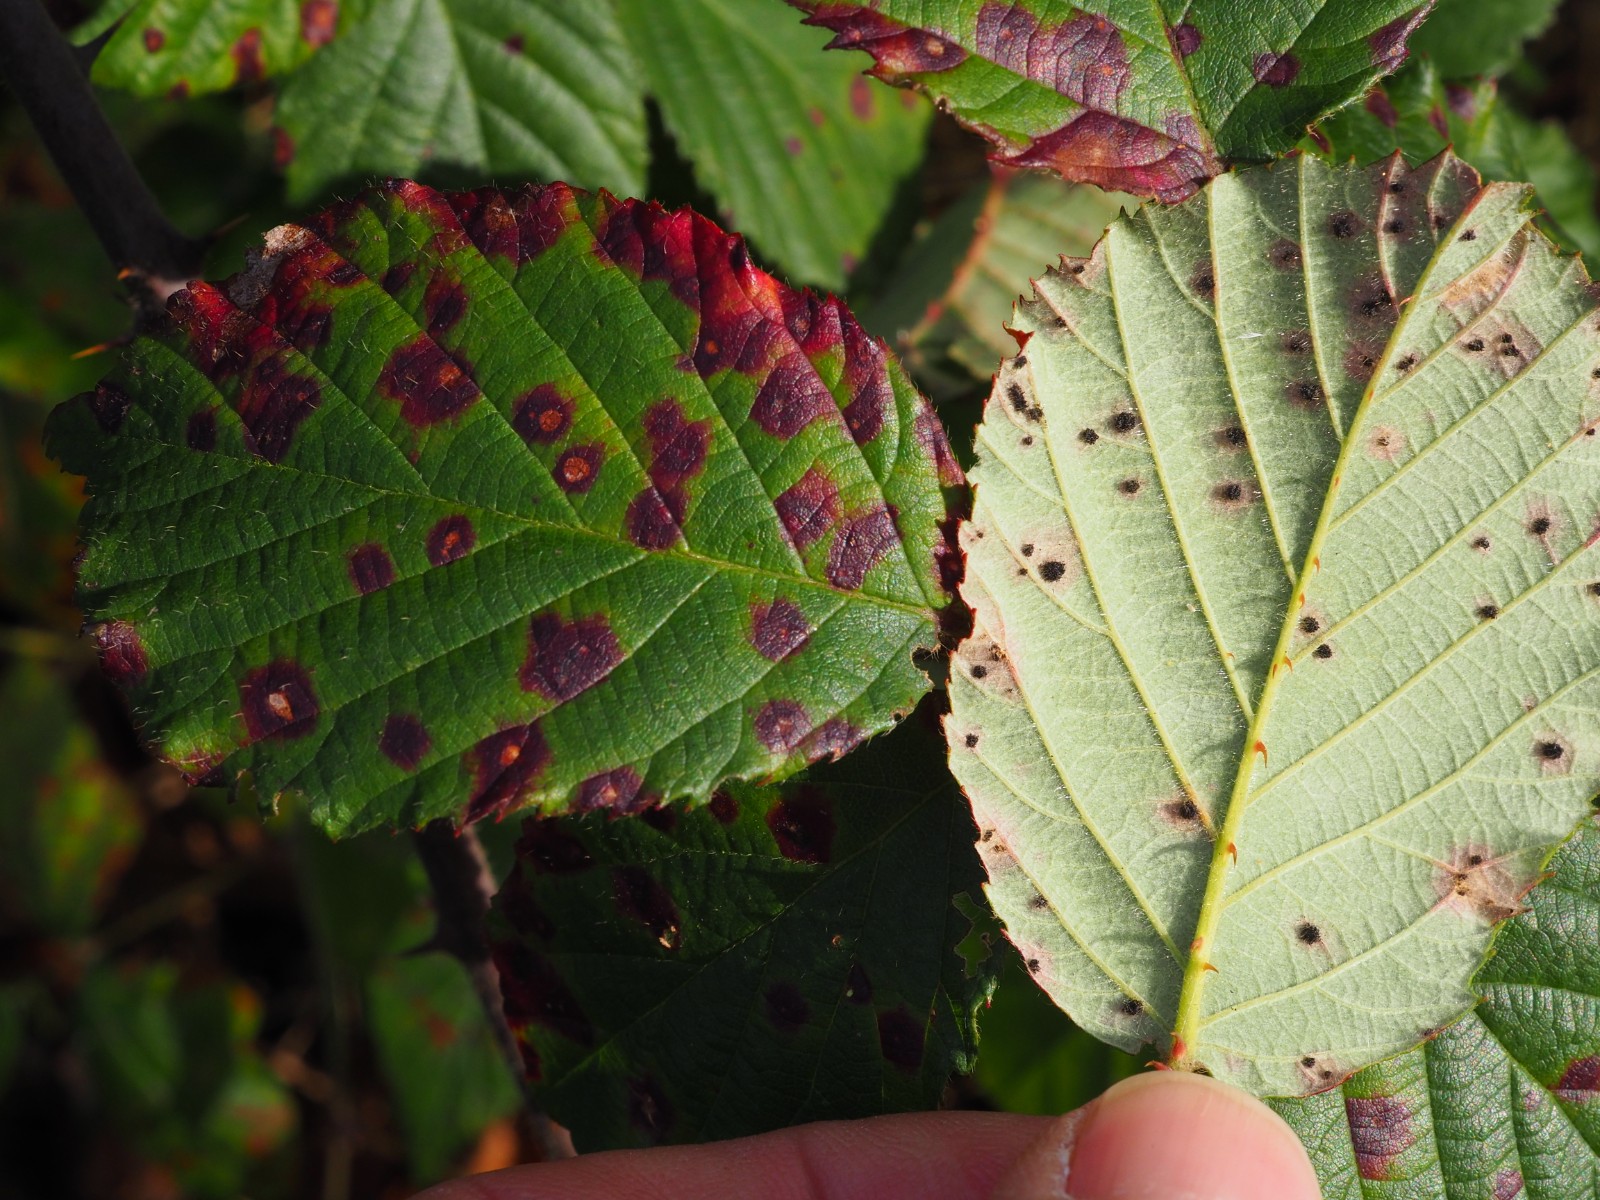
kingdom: Fungi
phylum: Basidiomycota
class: Pucciniomycetes
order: Pucciniales
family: Phragmidiaceae
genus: Phragmidium
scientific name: Phragmidium violaceum
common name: violet flercellerust
